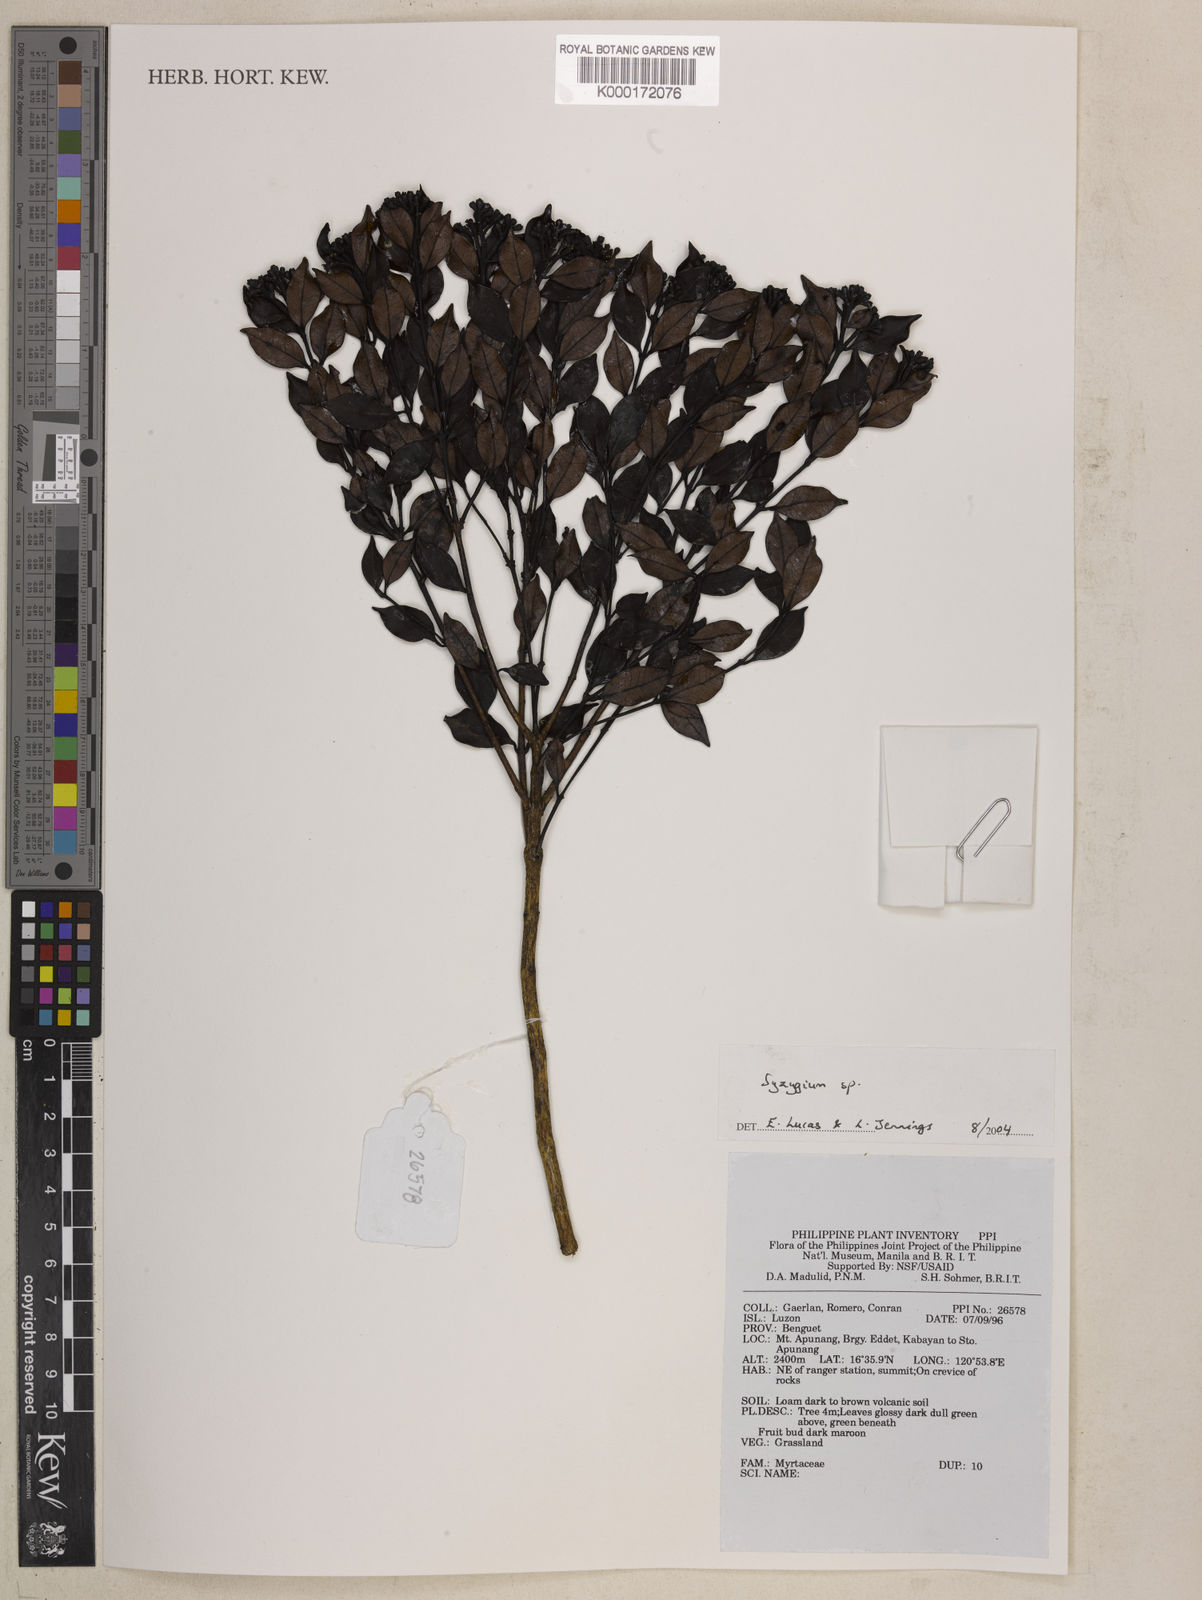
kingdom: Plantae
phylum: Tracheophyta
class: Magnoliopsida
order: Myrtales
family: Myrtaceae
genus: Syzygium
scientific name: Syzygium
